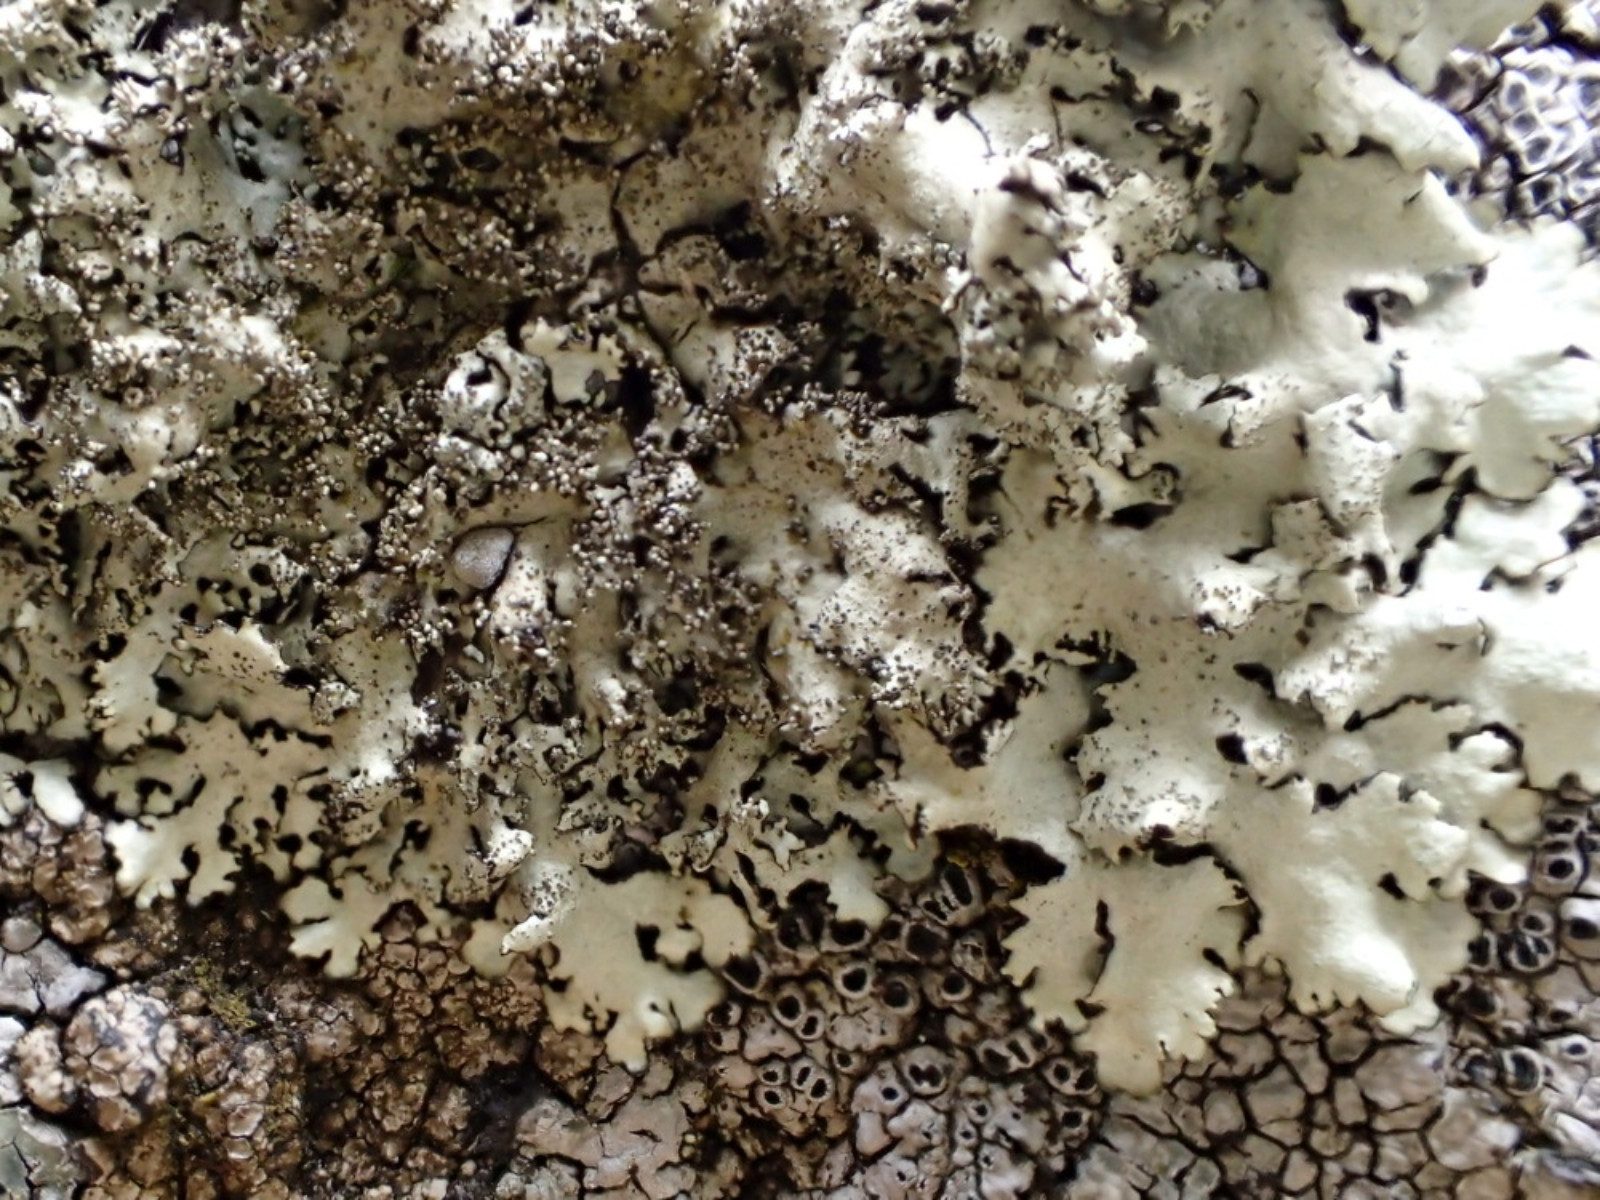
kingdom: Fungi
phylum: Ascomycota
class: Lecanoromycetes
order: Lecanorales
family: Parmeliaceae
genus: Xanthoparmelia
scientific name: Xanthoparmelia conspersa
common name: messing-skållav
